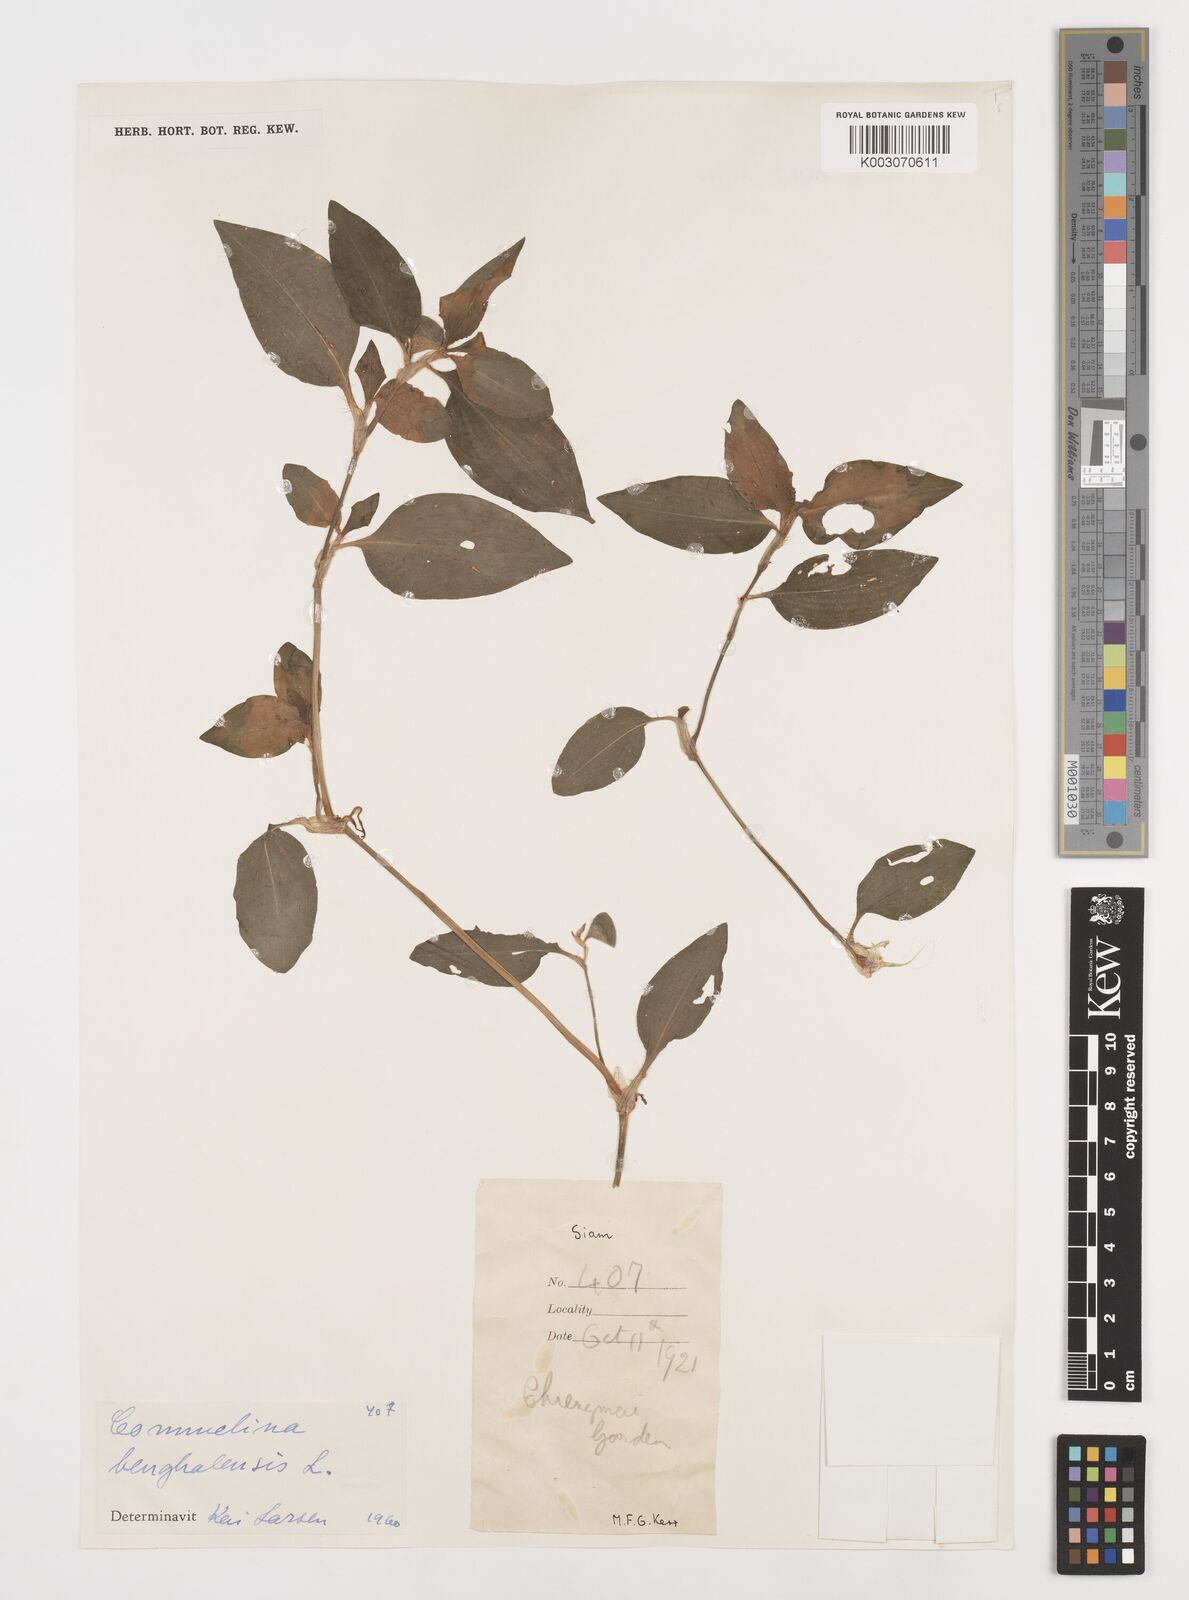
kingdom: Plantae
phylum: Tracheophyta
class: Liliopsida
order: Commelinales
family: Commelinaceae
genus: Commelina
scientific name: Commelina benghalensis
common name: Jio
